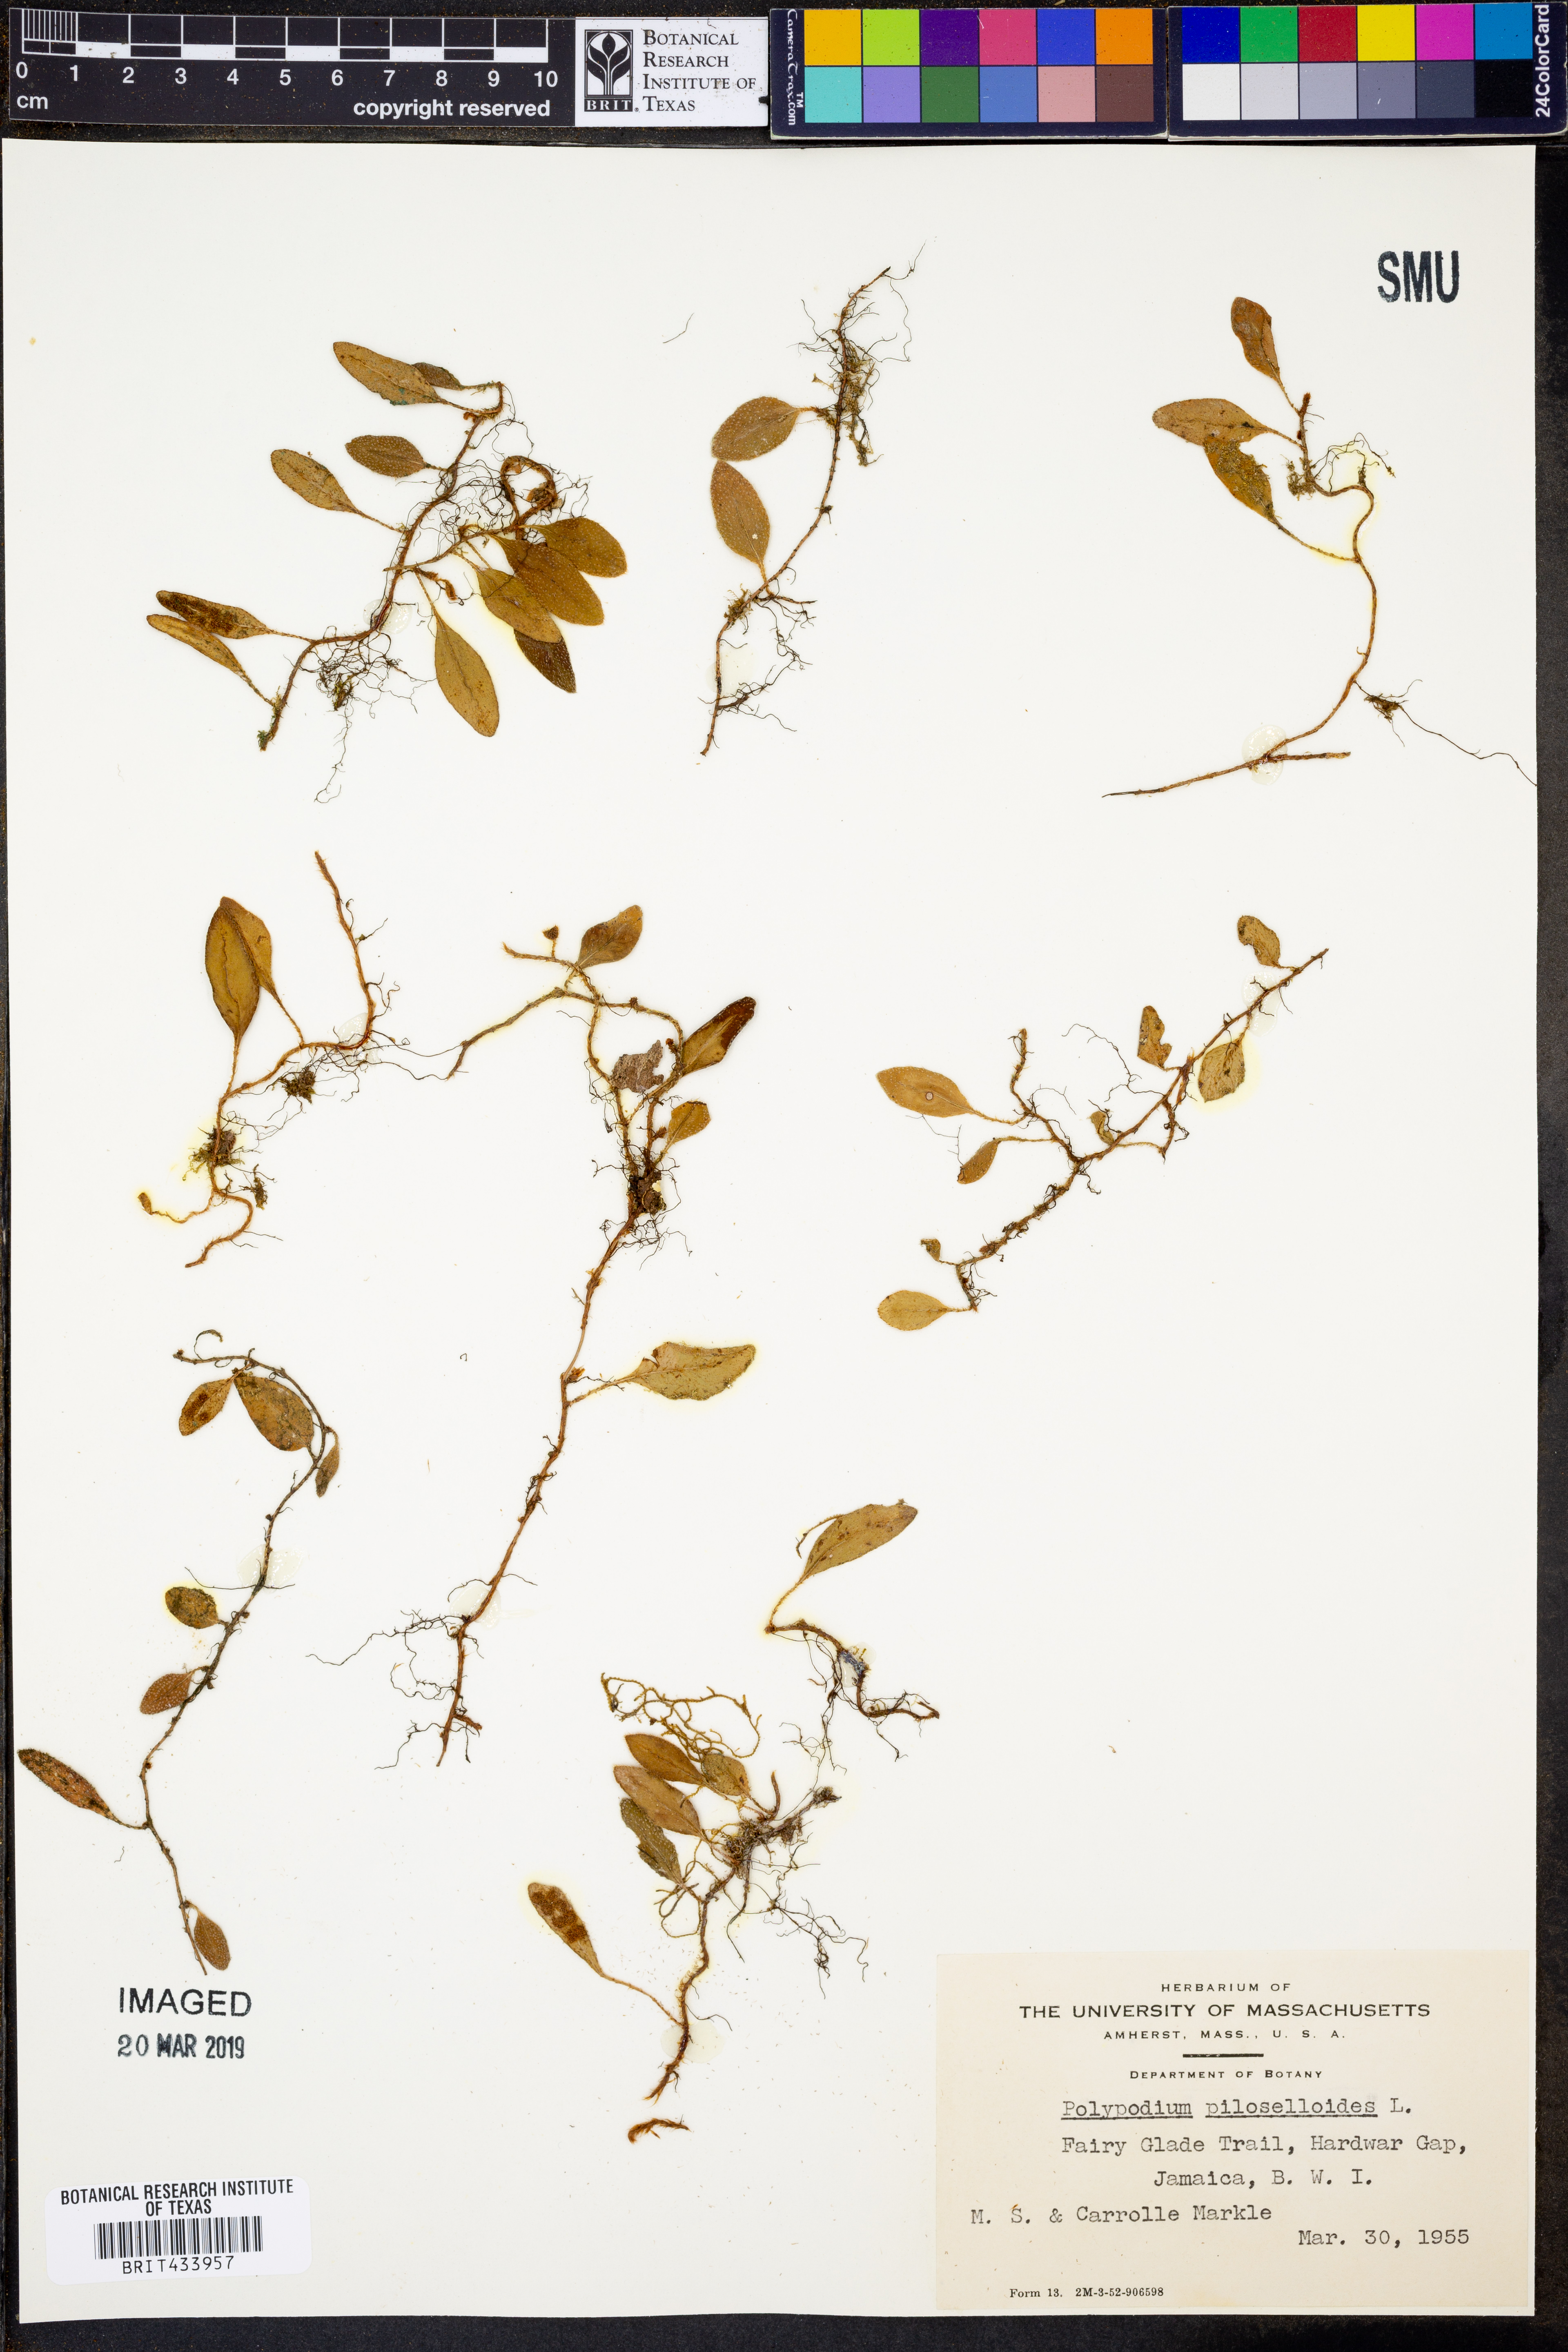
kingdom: Plantae
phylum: Tracheophyta
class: Polypodiopsida
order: Polypodiales
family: Polypodiaceae
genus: Microgramma
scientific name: Microgramma piloselloides
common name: Hairy snakefern
